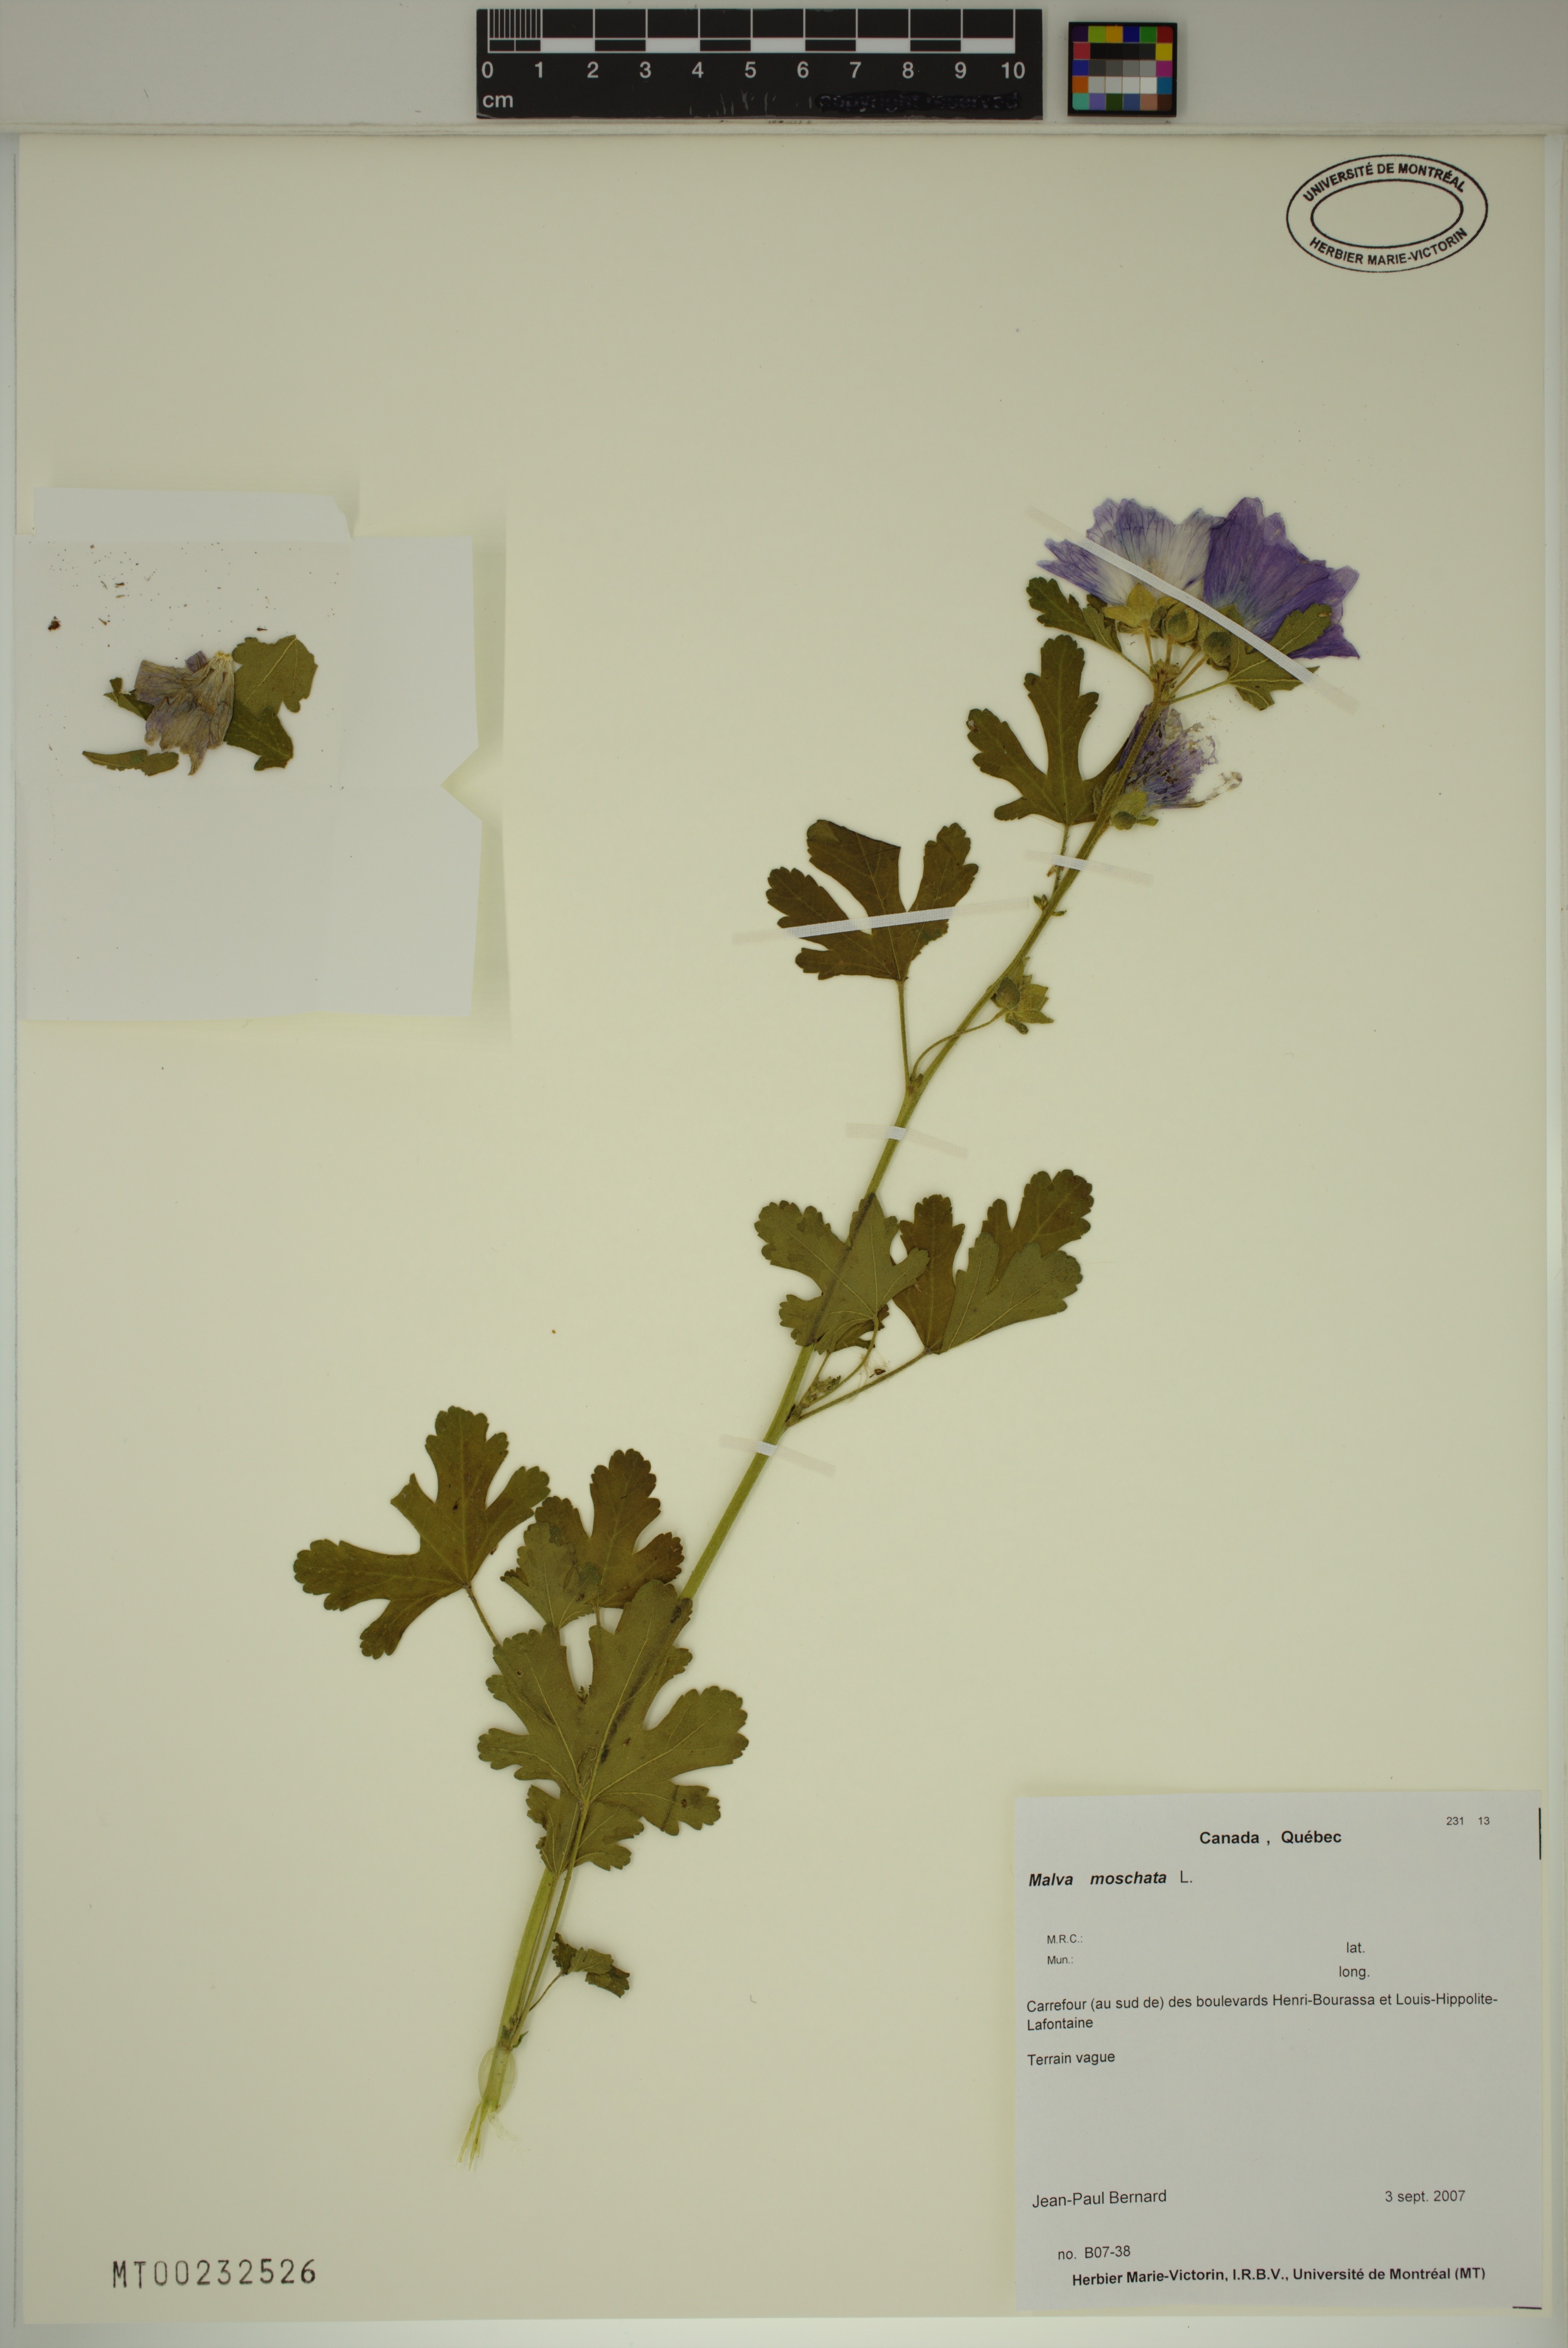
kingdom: Plantae
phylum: Tracheophyta
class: Magnoliopsida
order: Malvales
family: Malvaceae
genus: Malva
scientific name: Malva moschata
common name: Musk mallow
